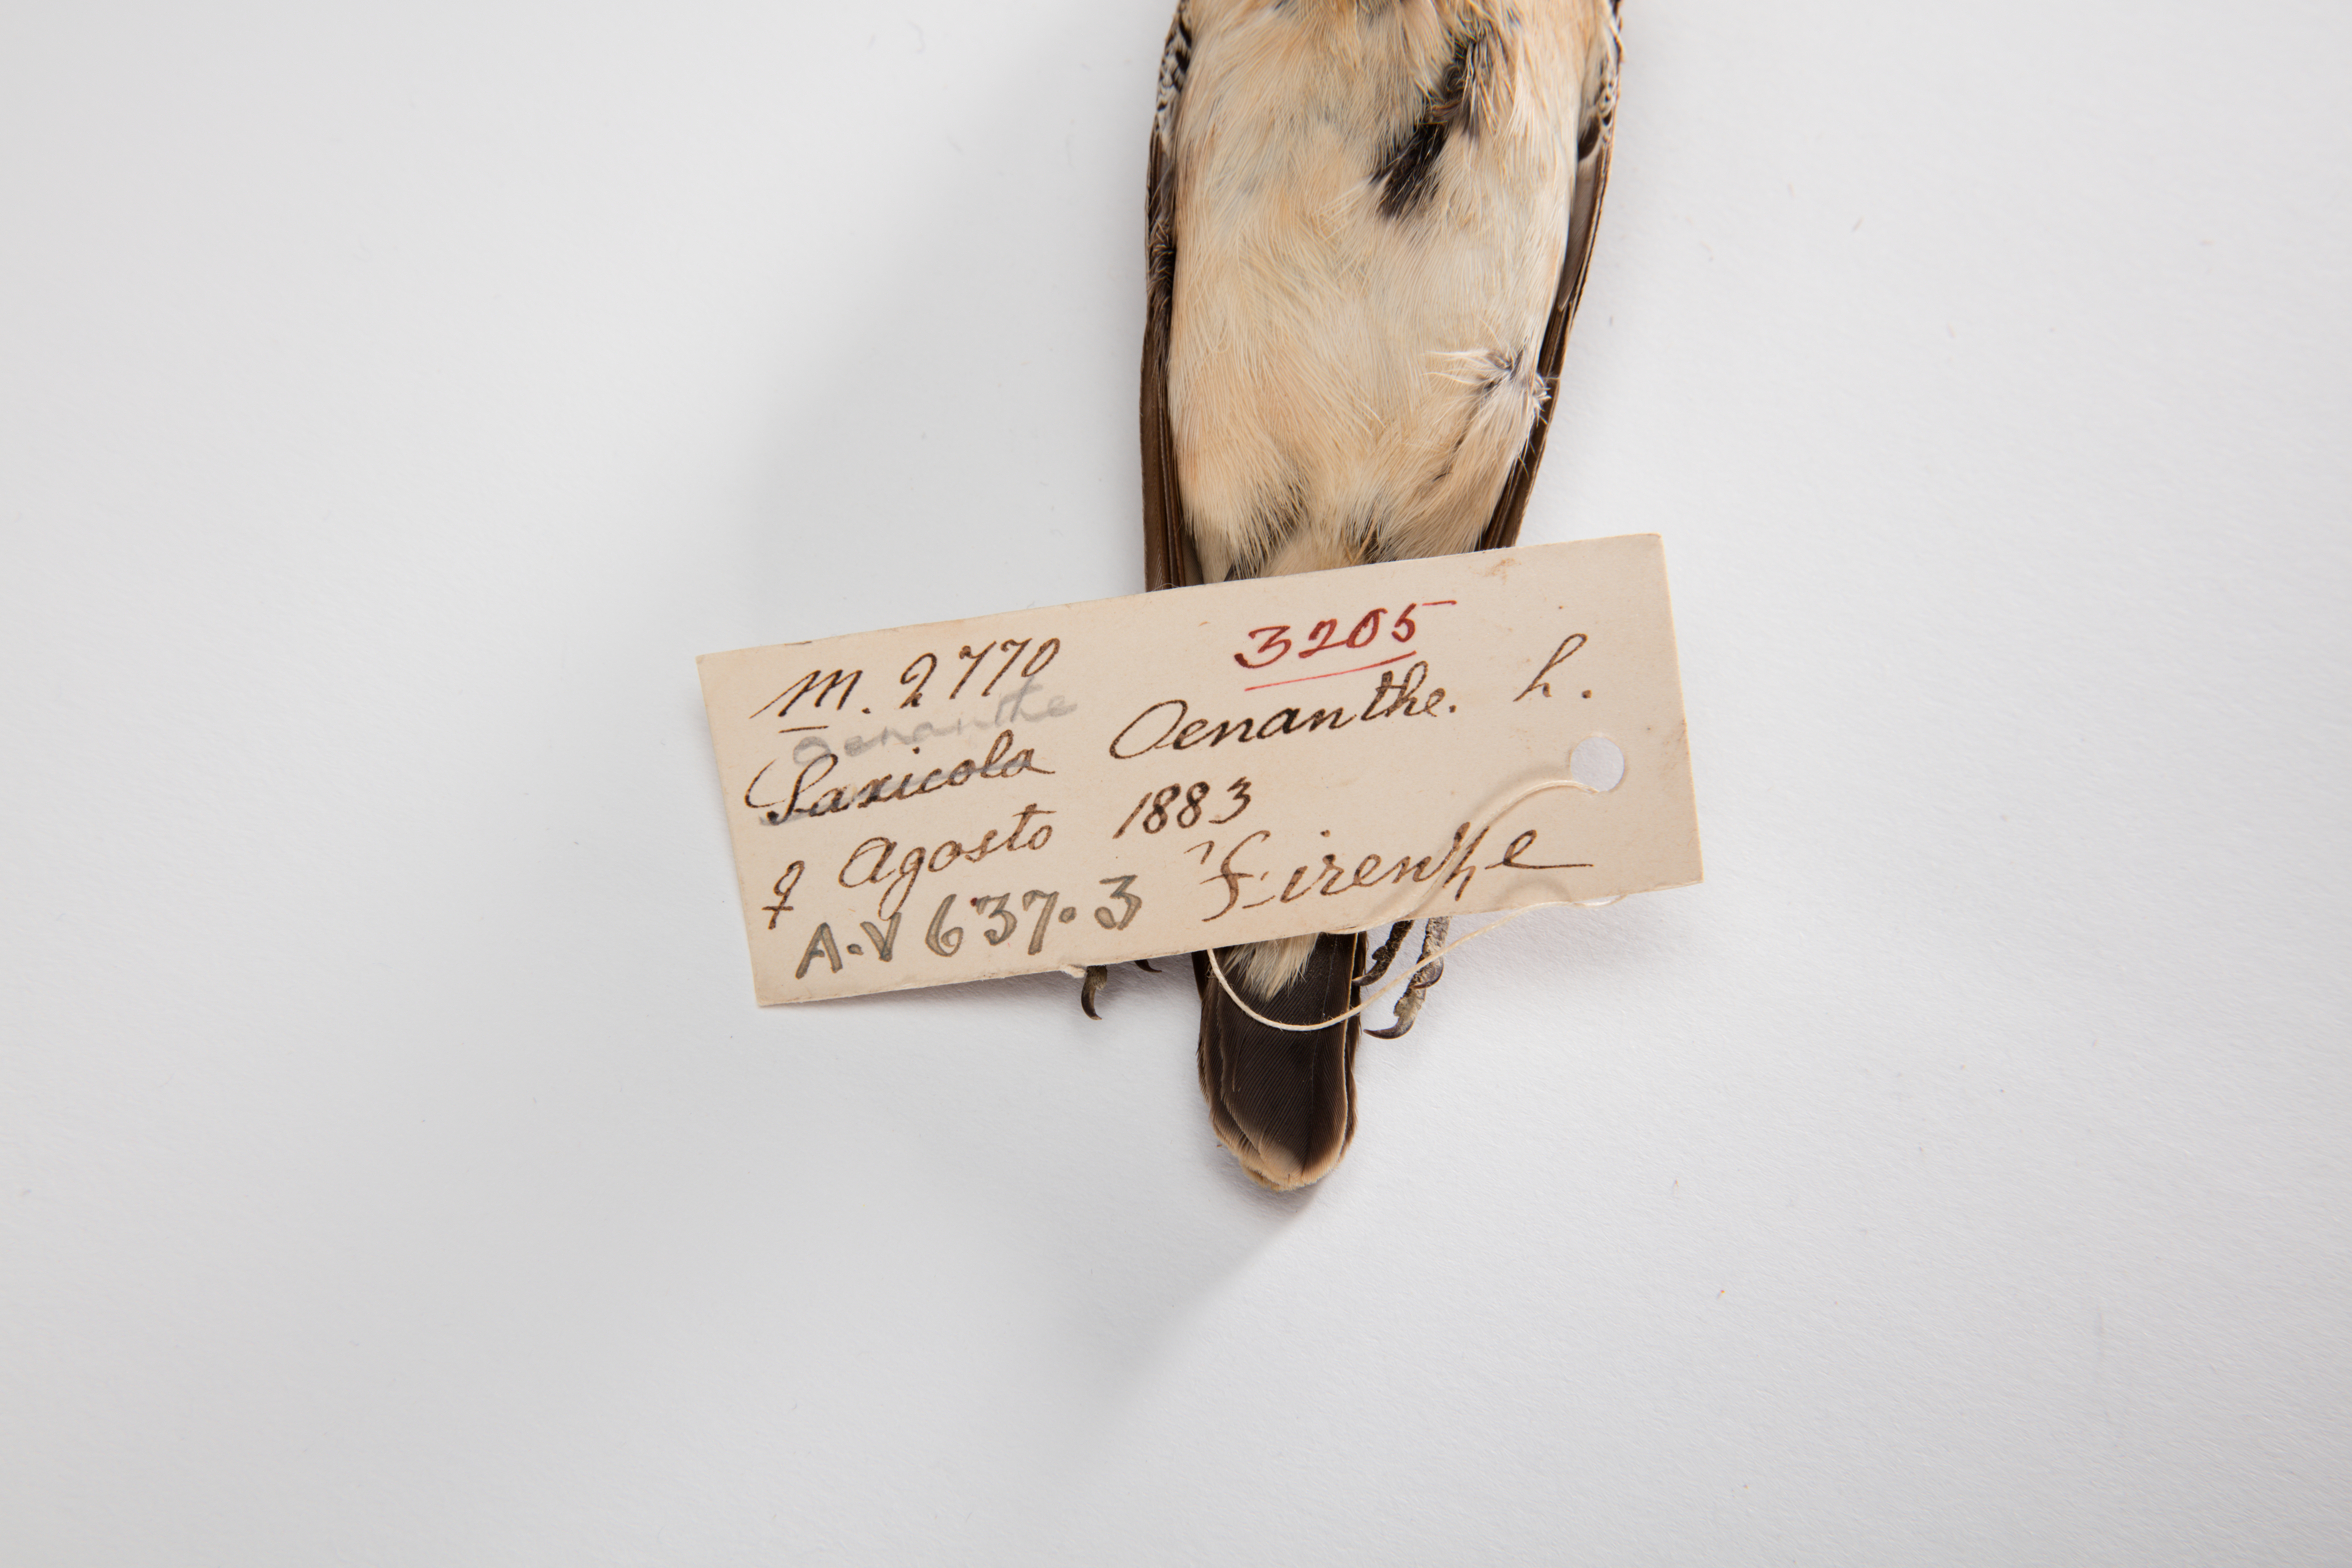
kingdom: Animalia
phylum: Chordata
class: Aves
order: Passeriformes
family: Muscicapidae
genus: Oenanthe
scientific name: Oenanthe oenanthe
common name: Northern wheatear
